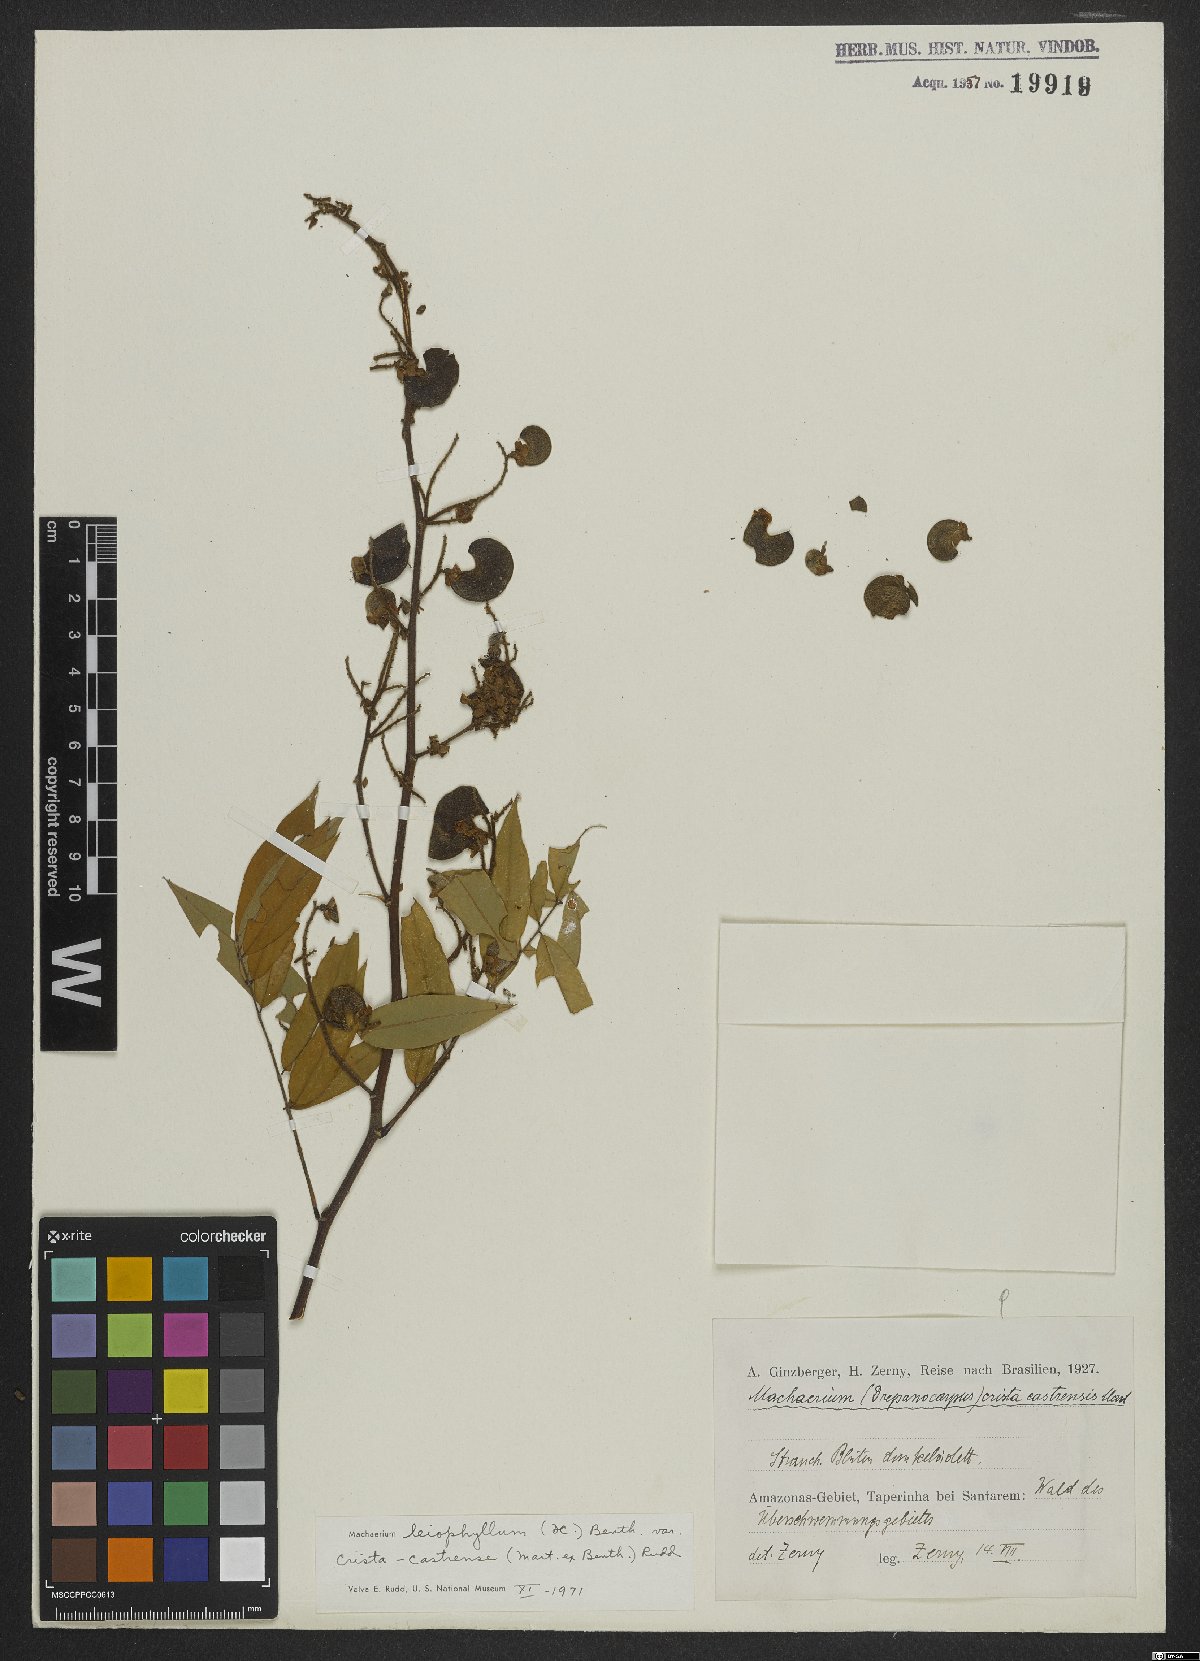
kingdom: Plantae
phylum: Tracheophyta
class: Magnoliopsida
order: Fabales
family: Fabaceae
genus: Machaerium
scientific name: Machaerium leiophyllum
